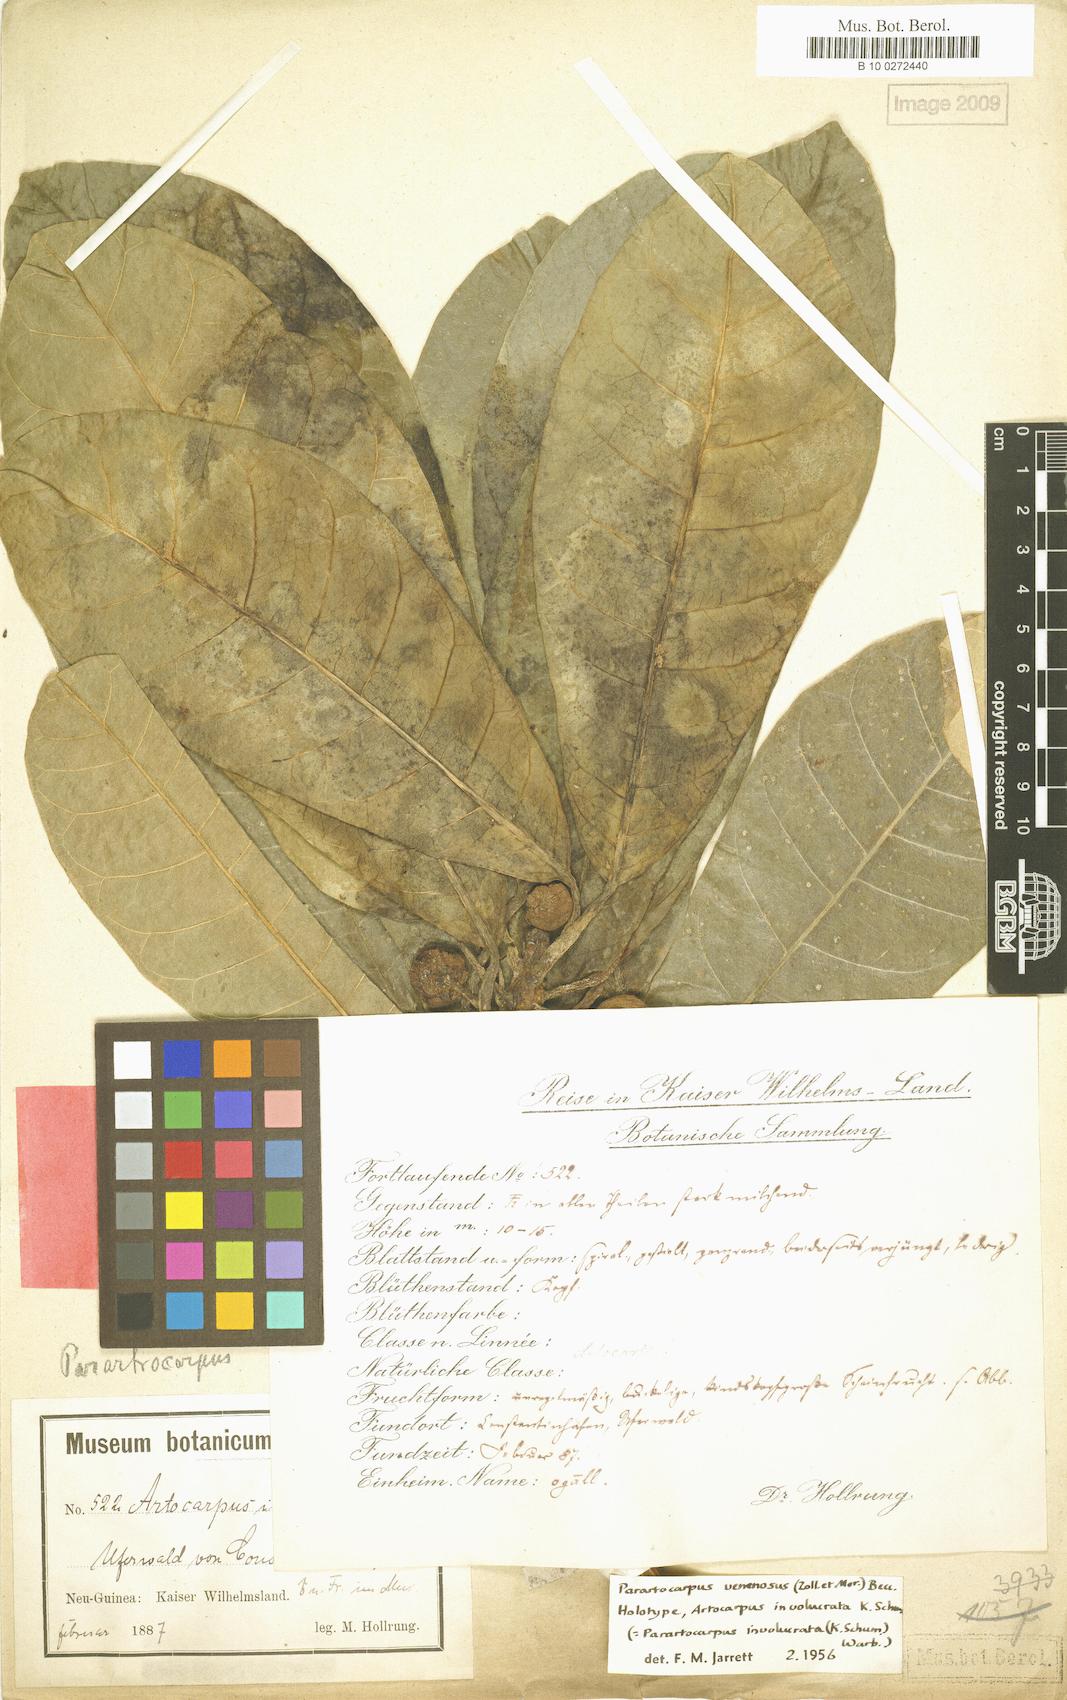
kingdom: Plantae
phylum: Tracheophyta
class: Magnoliopsida
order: Rosales
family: Moraceae
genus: Parartocarpus
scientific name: Parartocarpus venenosa
